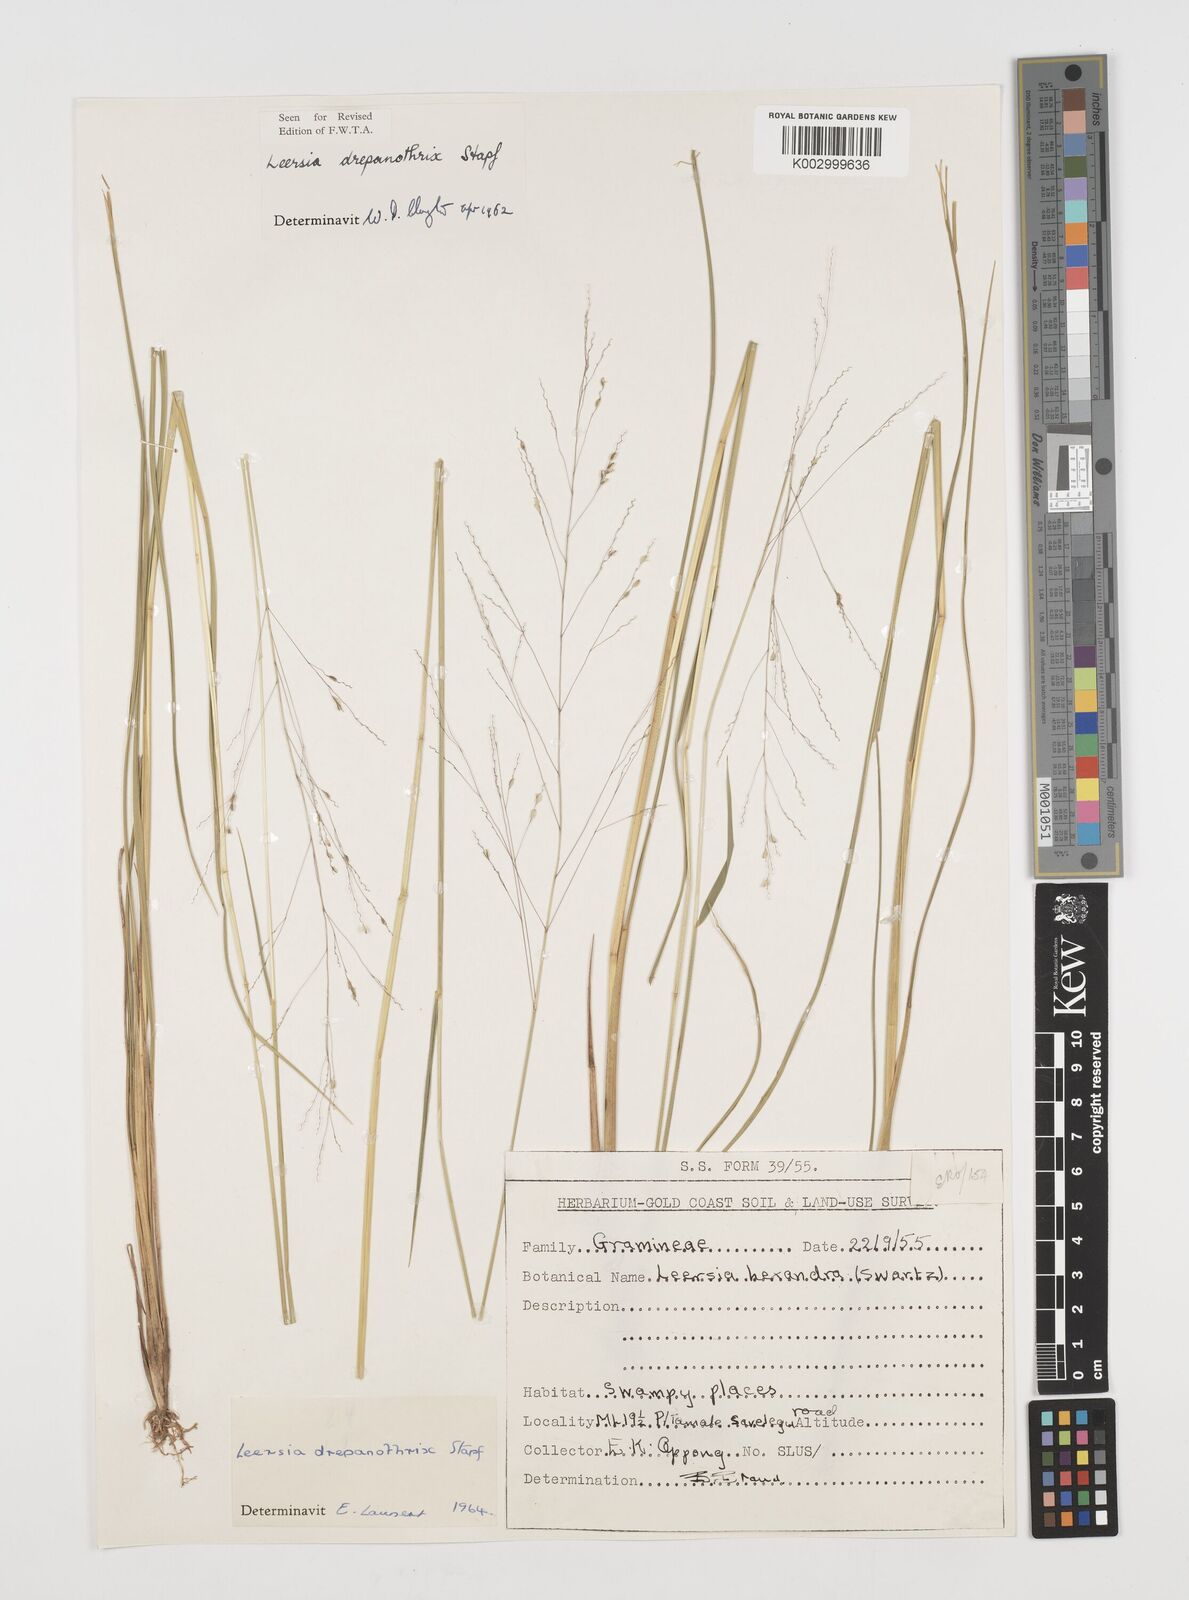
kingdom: Plantae
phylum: Tracheophyta
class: Liliopsida
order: Poales
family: Poaceae
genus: Leersia
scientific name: Leersia drepanothrix
